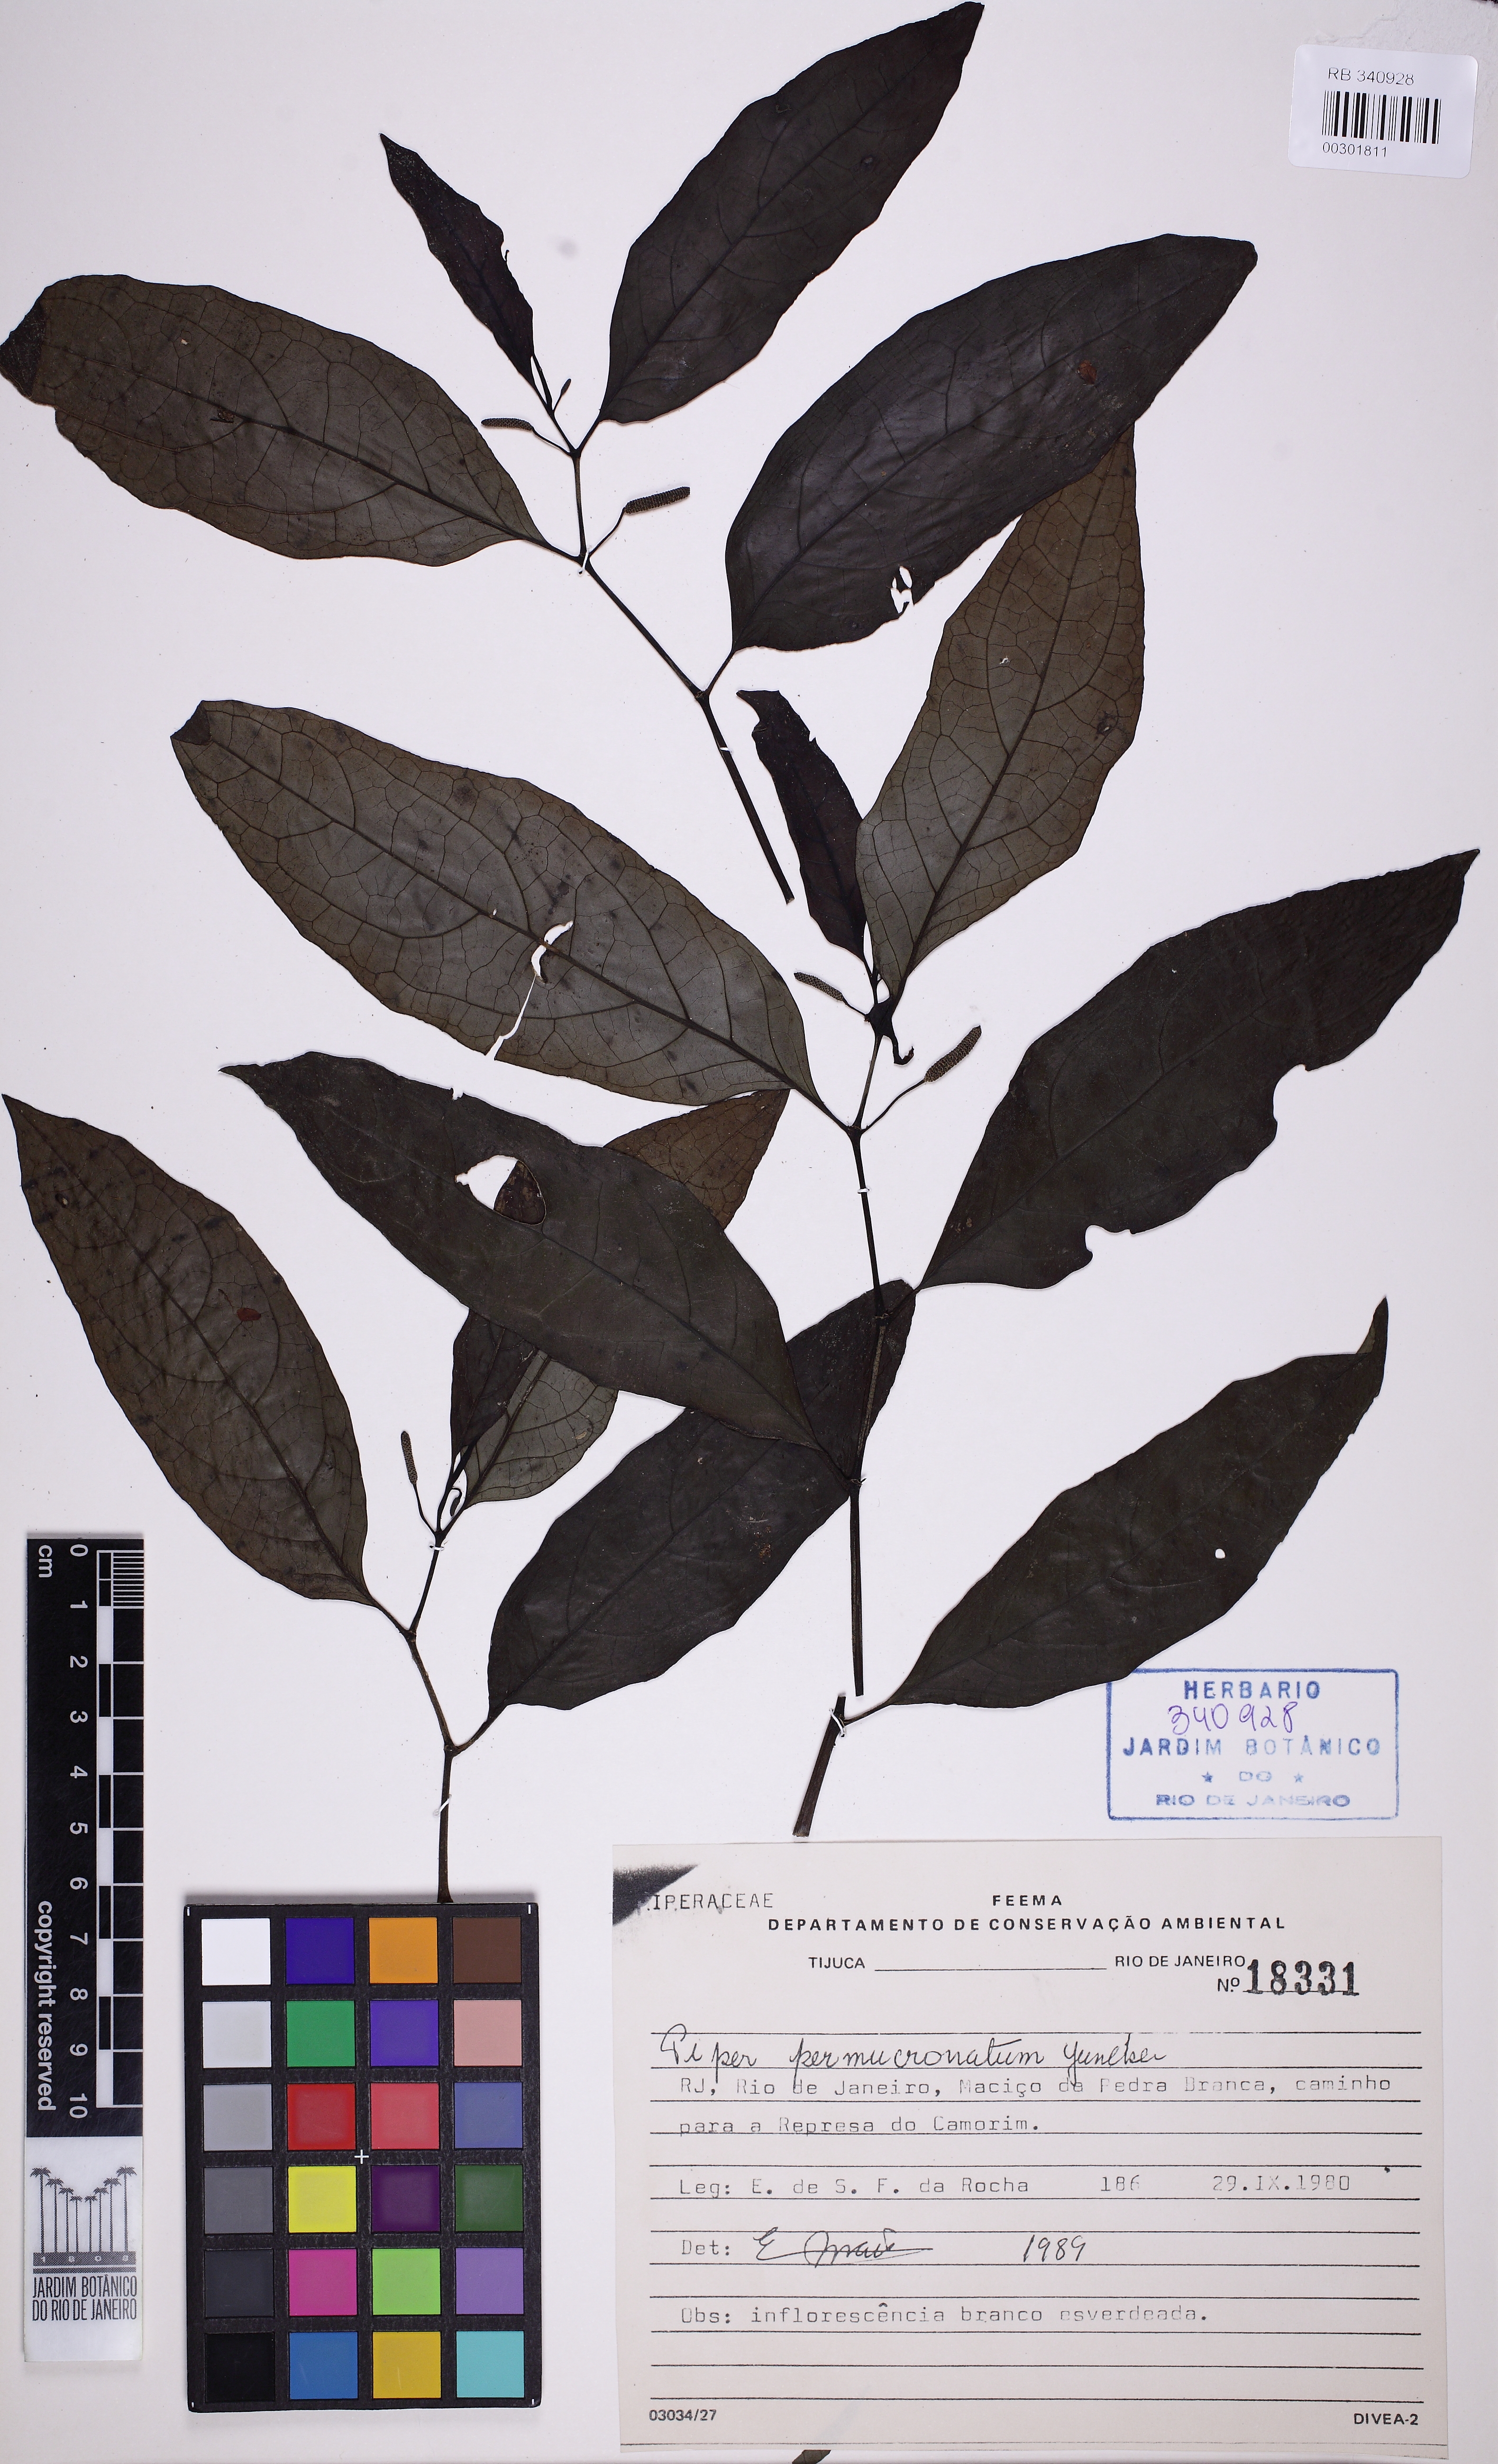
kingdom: Plantae
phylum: Tracheophyta
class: Magnoliopsida
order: Piperales
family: Piperaceae
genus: Piper
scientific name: Piper permucronatum
